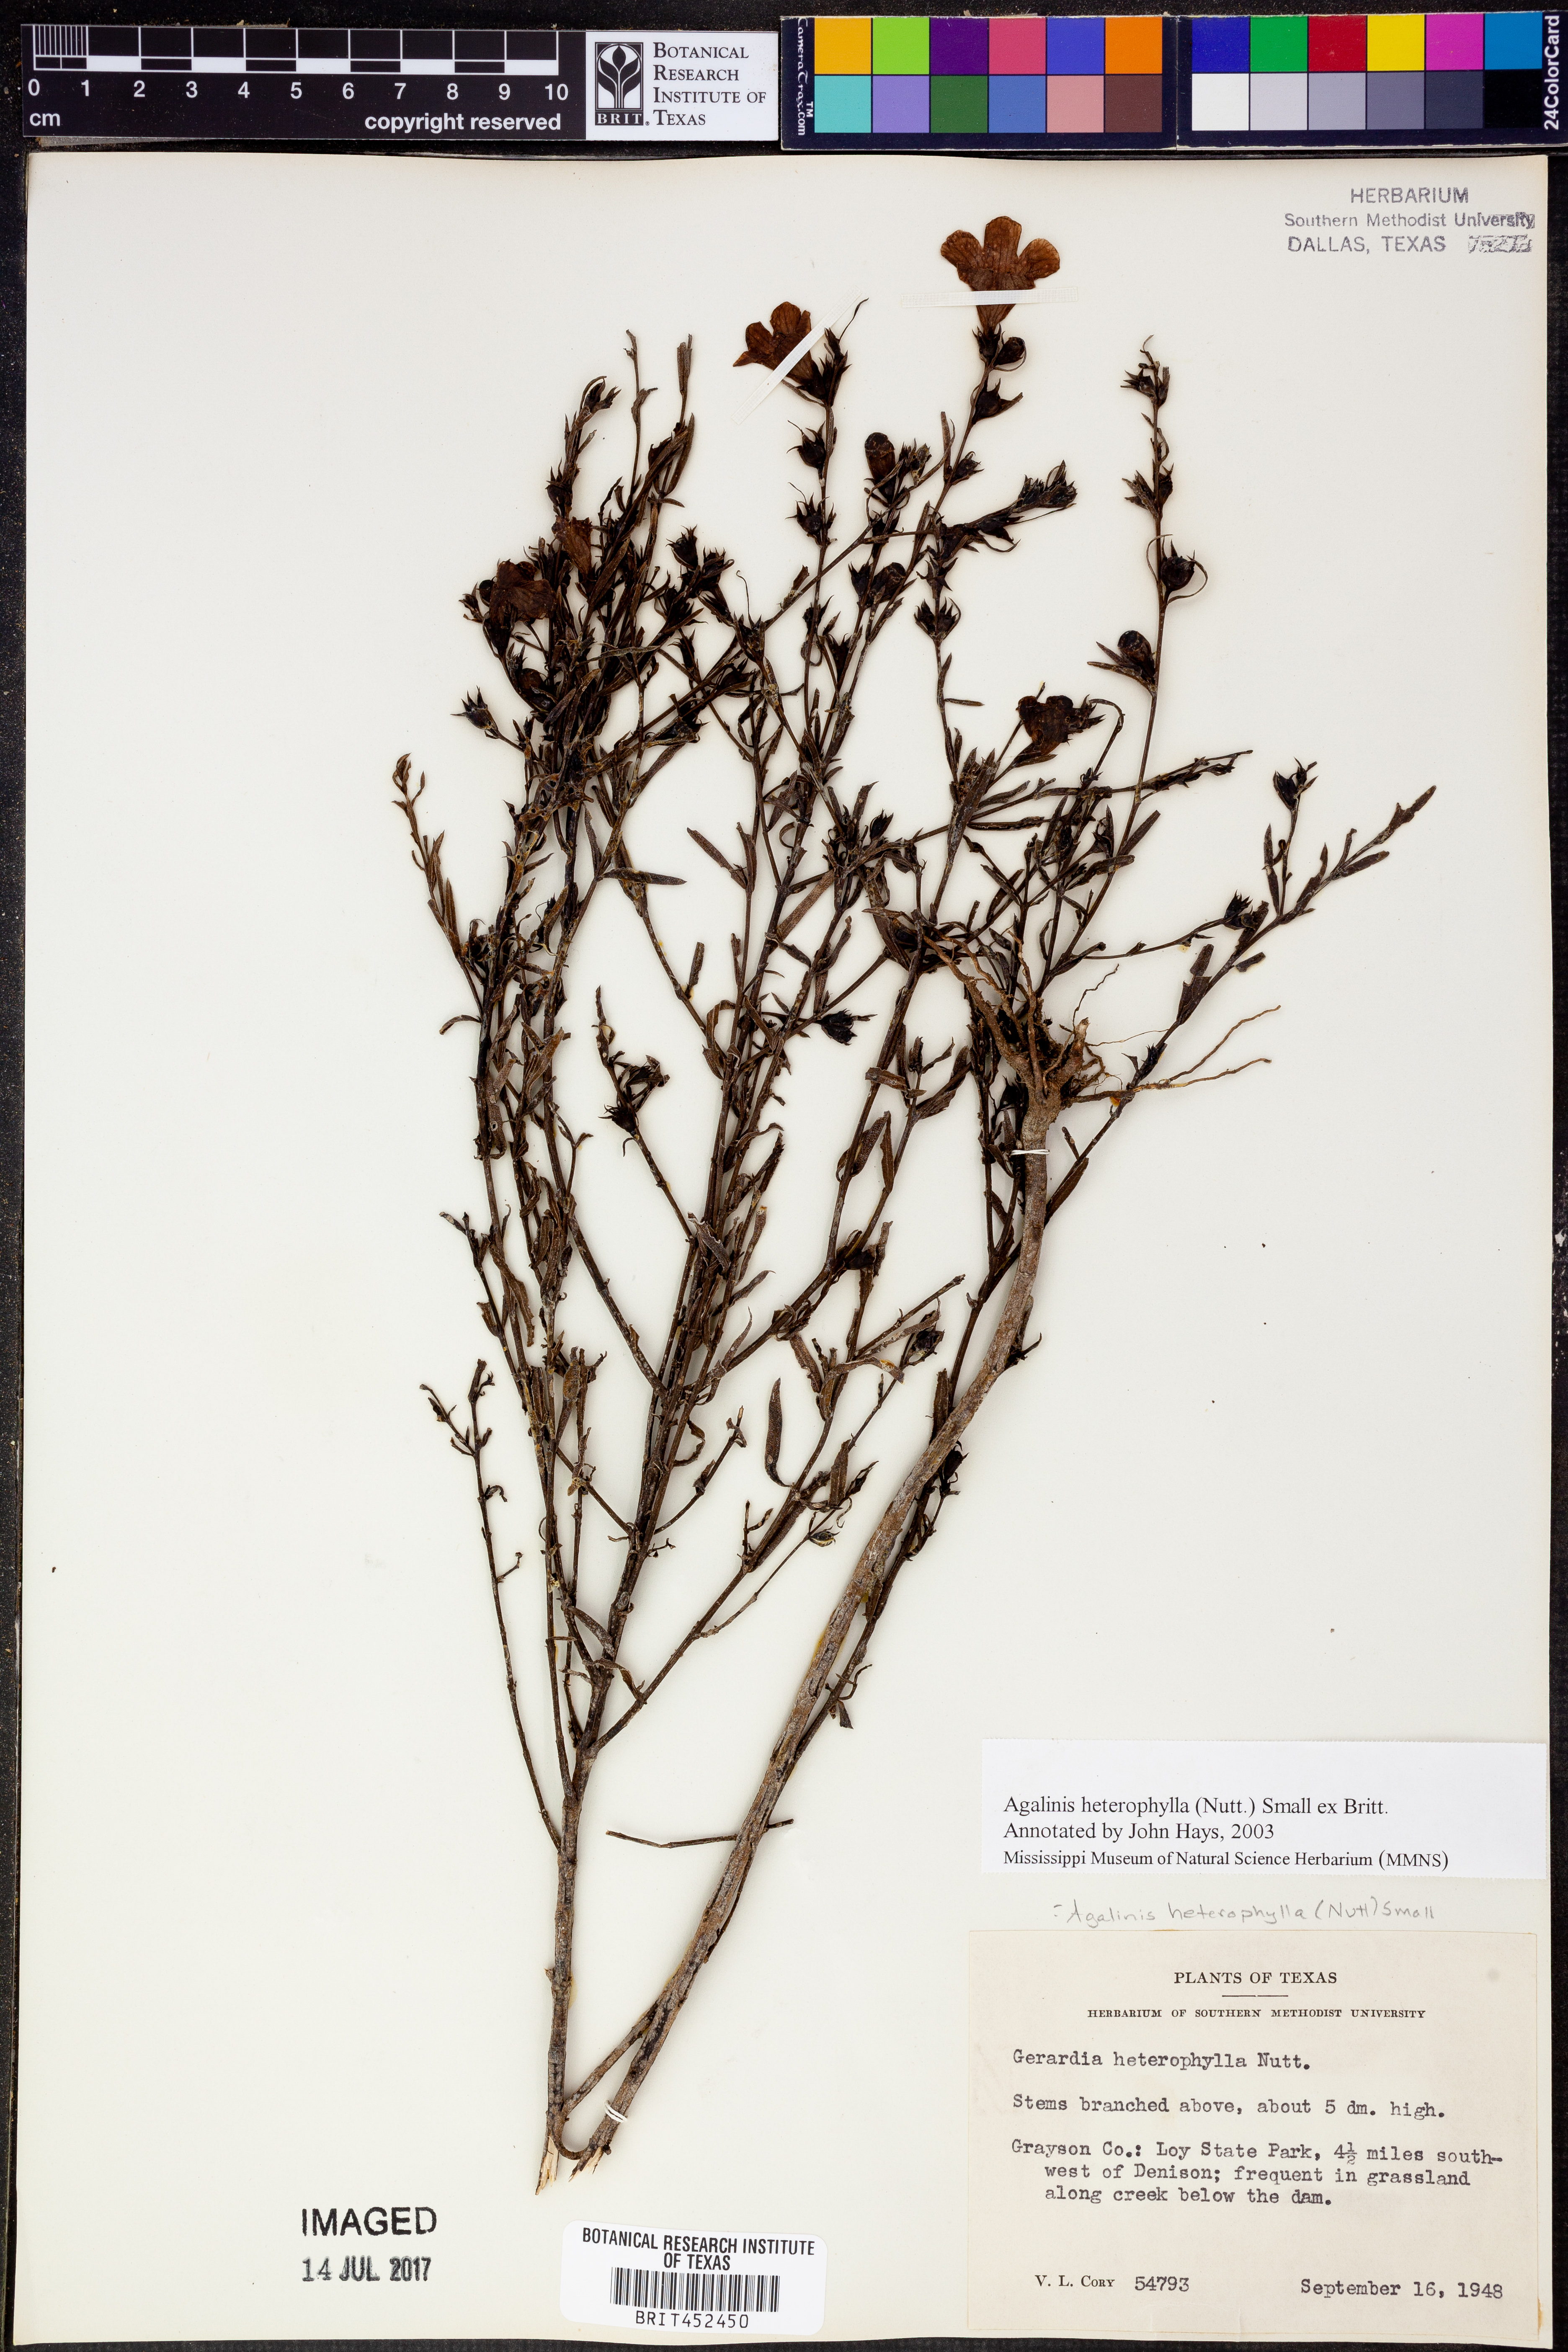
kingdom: Plantae
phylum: Tracheophyta
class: Magnoliopsida
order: Lamiales
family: Orobanchaceae
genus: Agalinis
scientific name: Agalinis heterophylla
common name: Prairie agalinis
